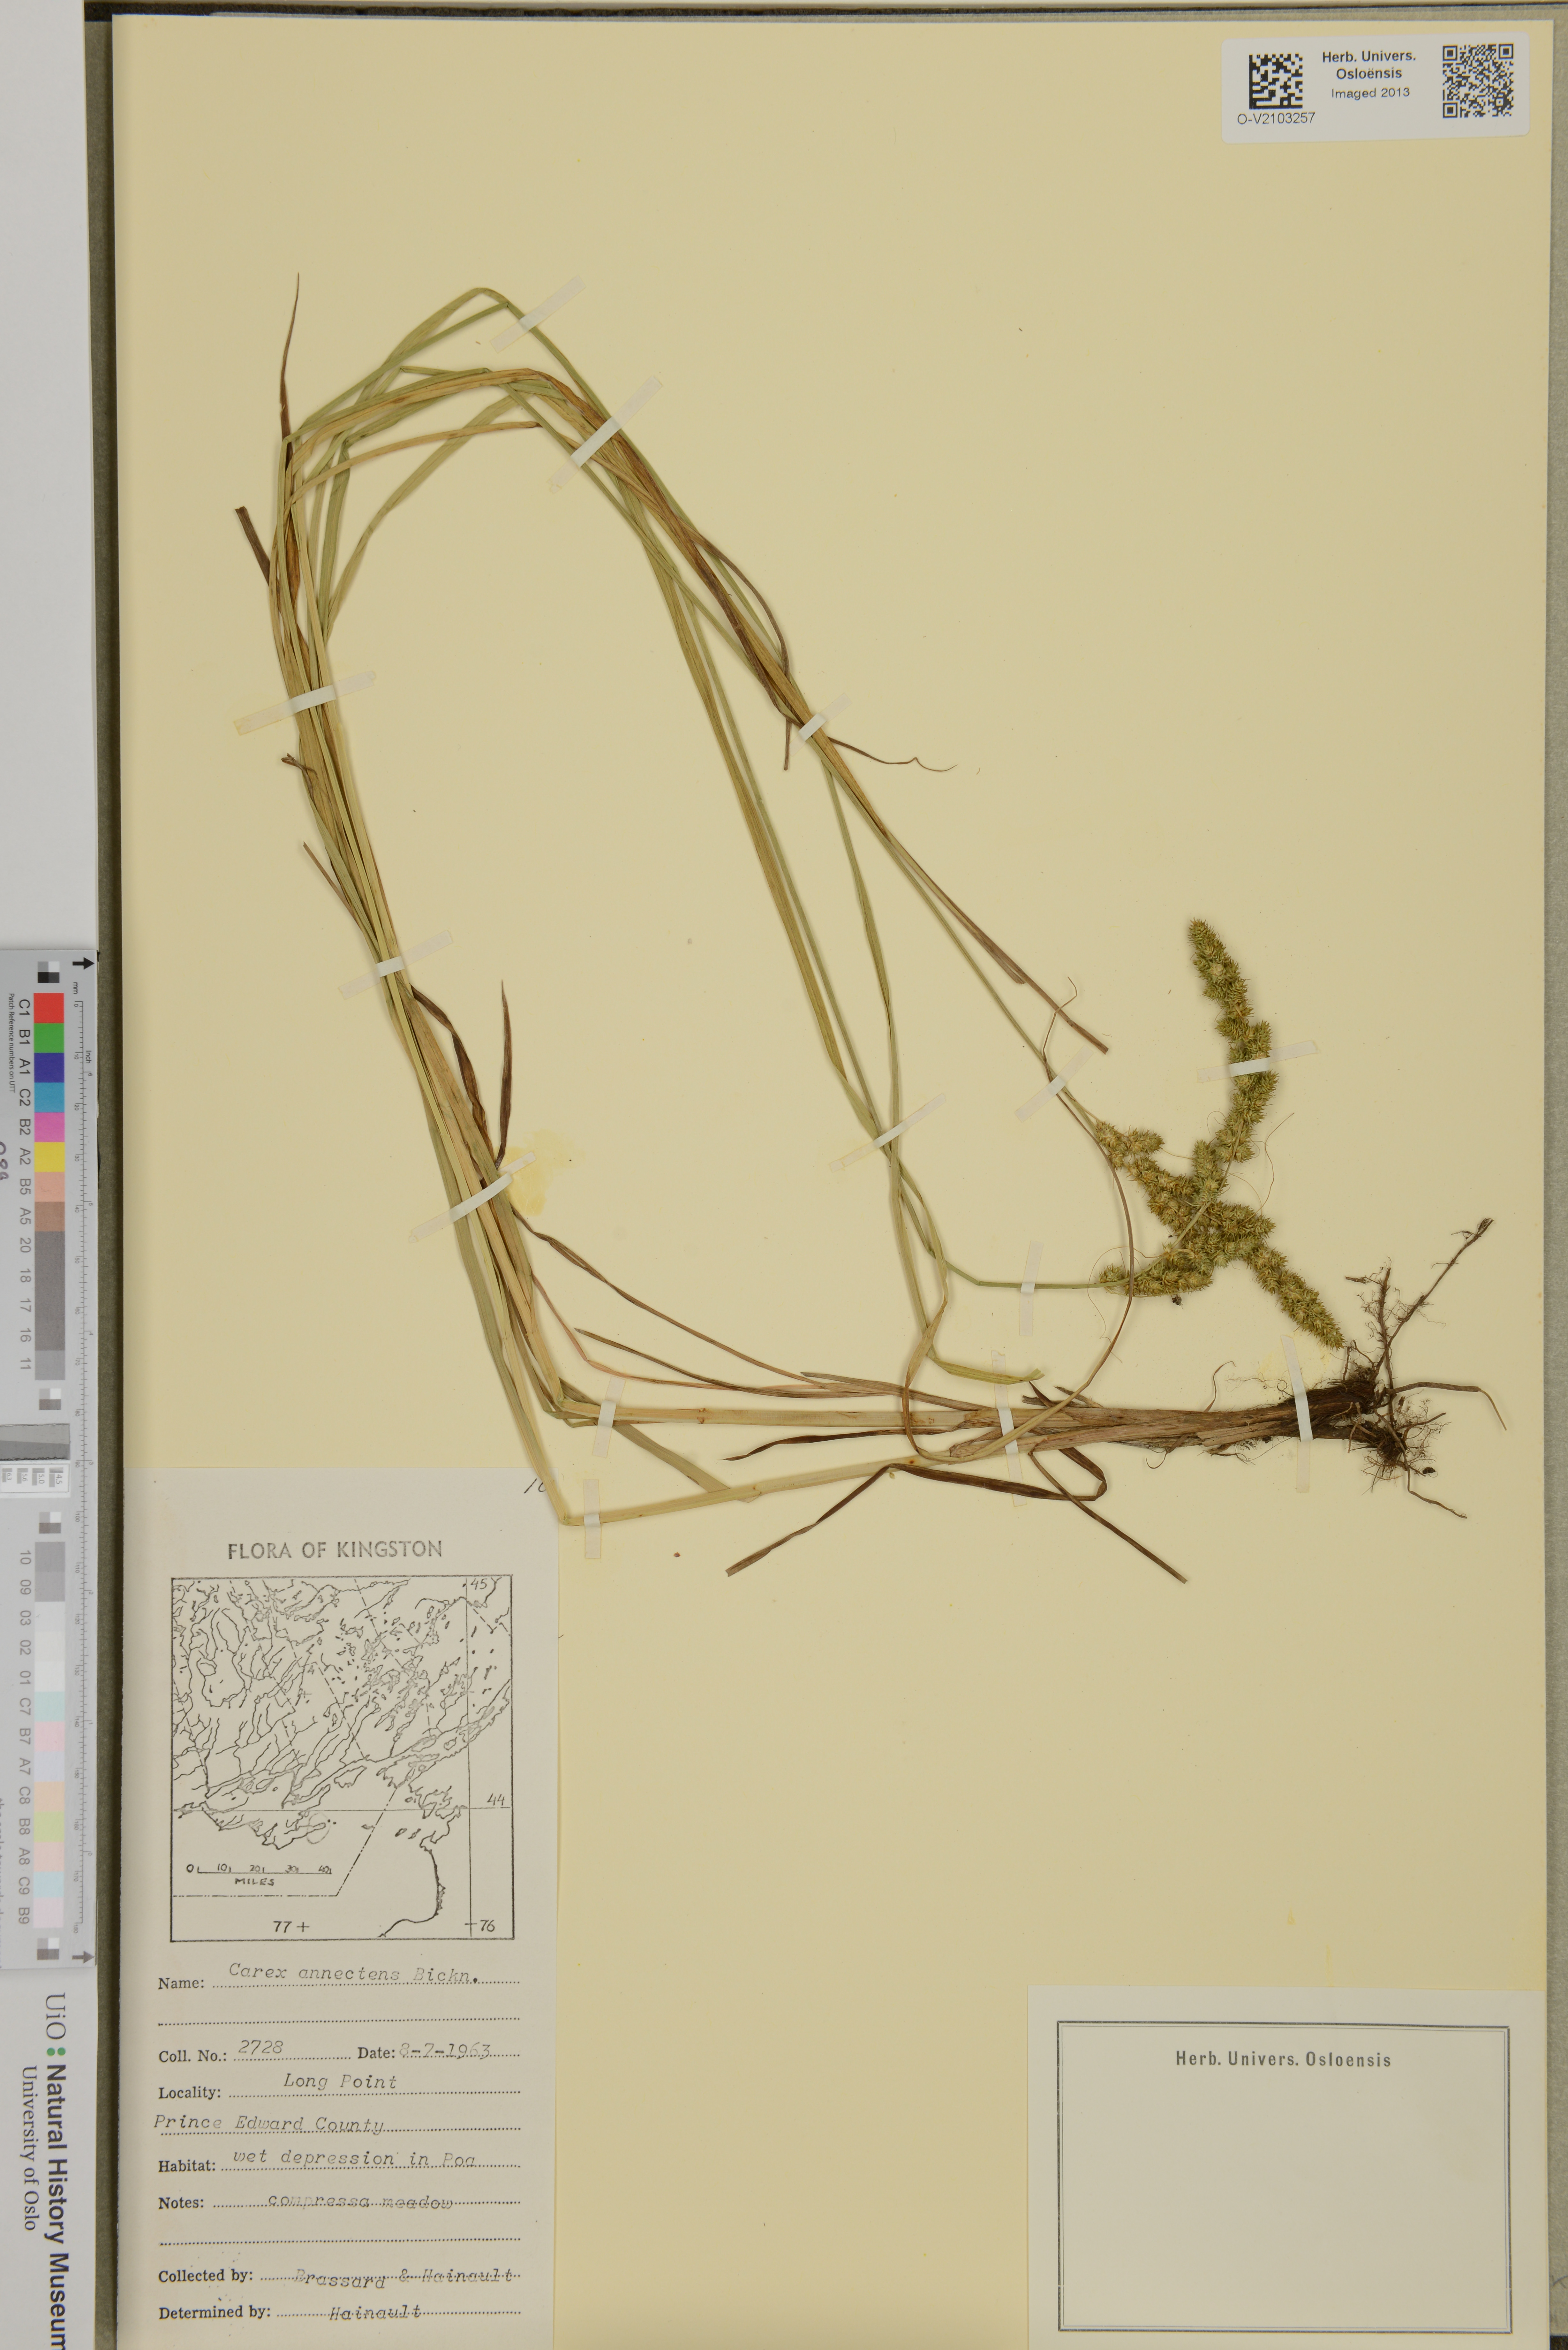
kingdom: Plantae
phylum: Tracheophyta
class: Liliopsida
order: Poales
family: Cyperaceae
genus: Carex
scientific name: Carex annectens
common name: Large fox sedge
